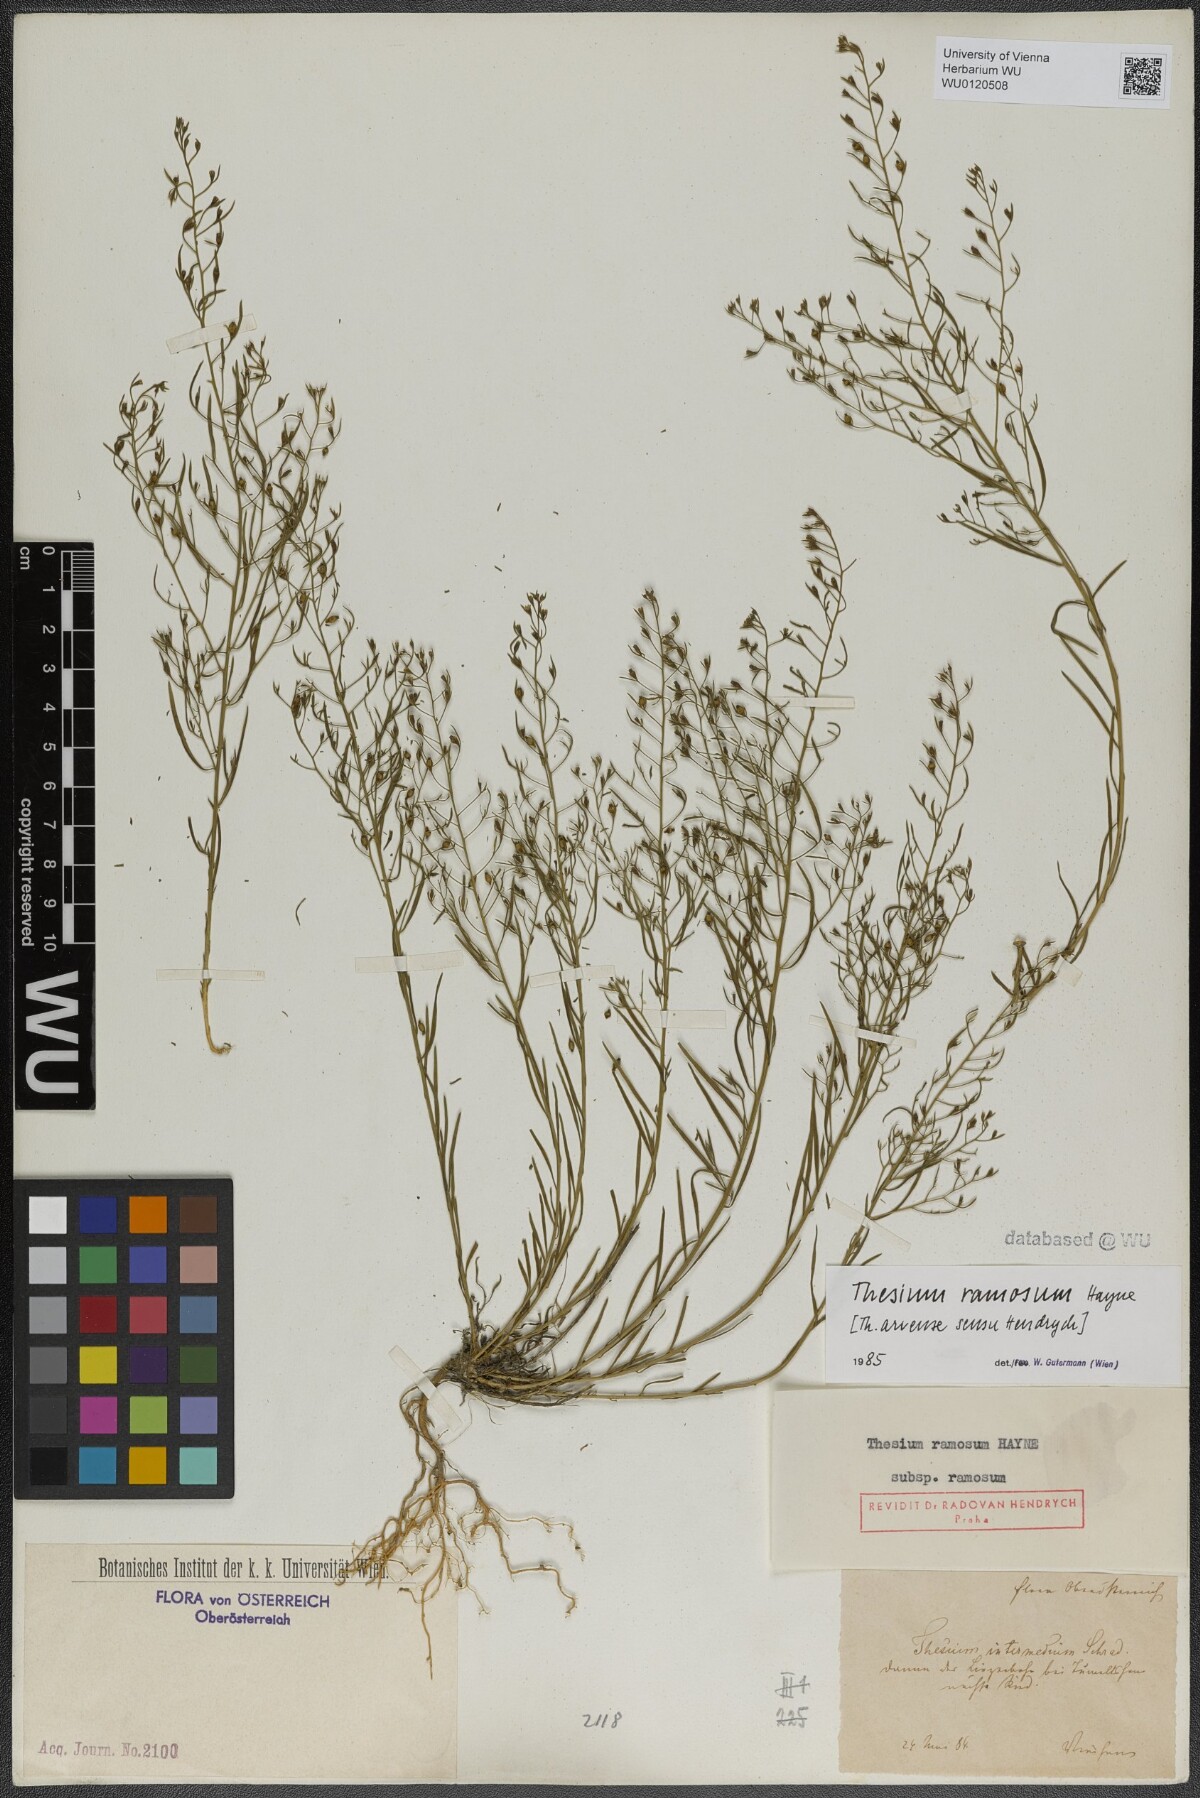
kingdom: Plantae
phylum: Tracheophyta
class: Magnoliopsida
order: Santalales
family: Thesiaceae
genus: Thesium
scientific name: Thesium ramosum
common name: Field thesium
